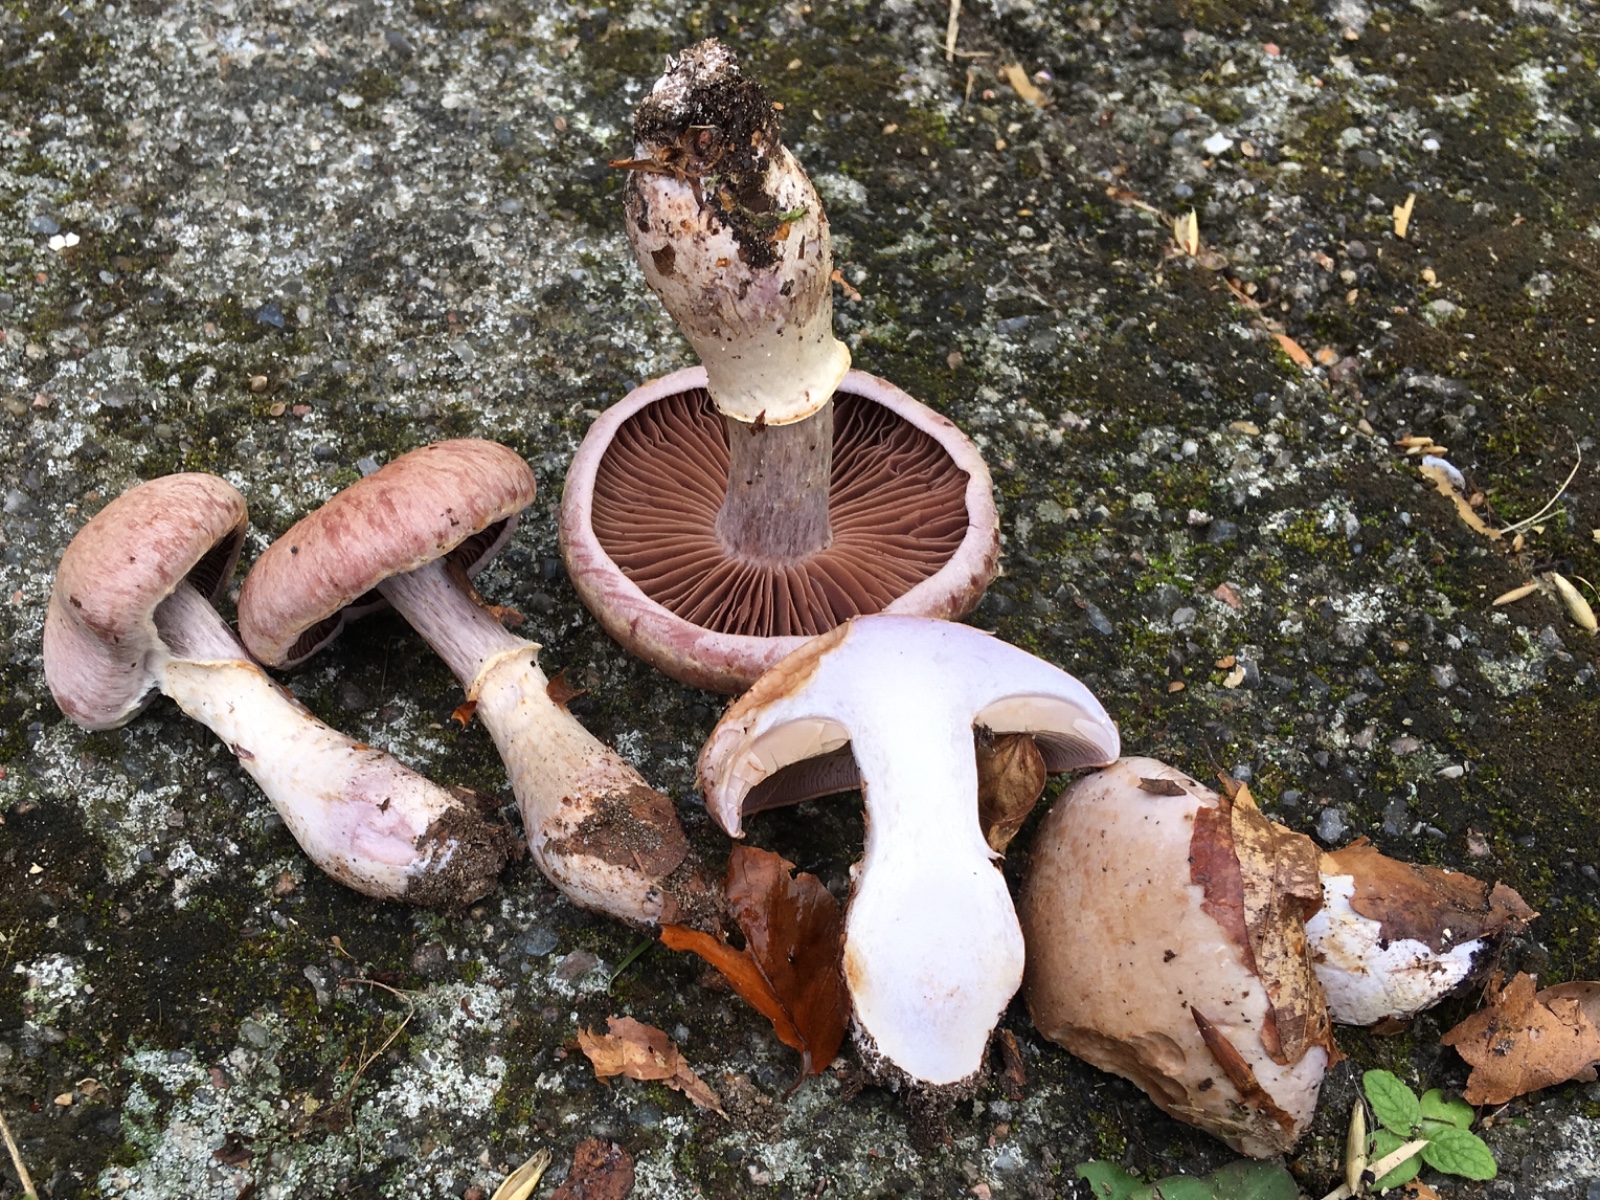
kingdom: Fungi
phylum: Basidiomycota
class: Agaricomycetes
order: Agaricales
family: Cortinariaceae
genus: Cortinarius
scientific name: Cortinarius torvus
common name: champignonagtig slørhat
